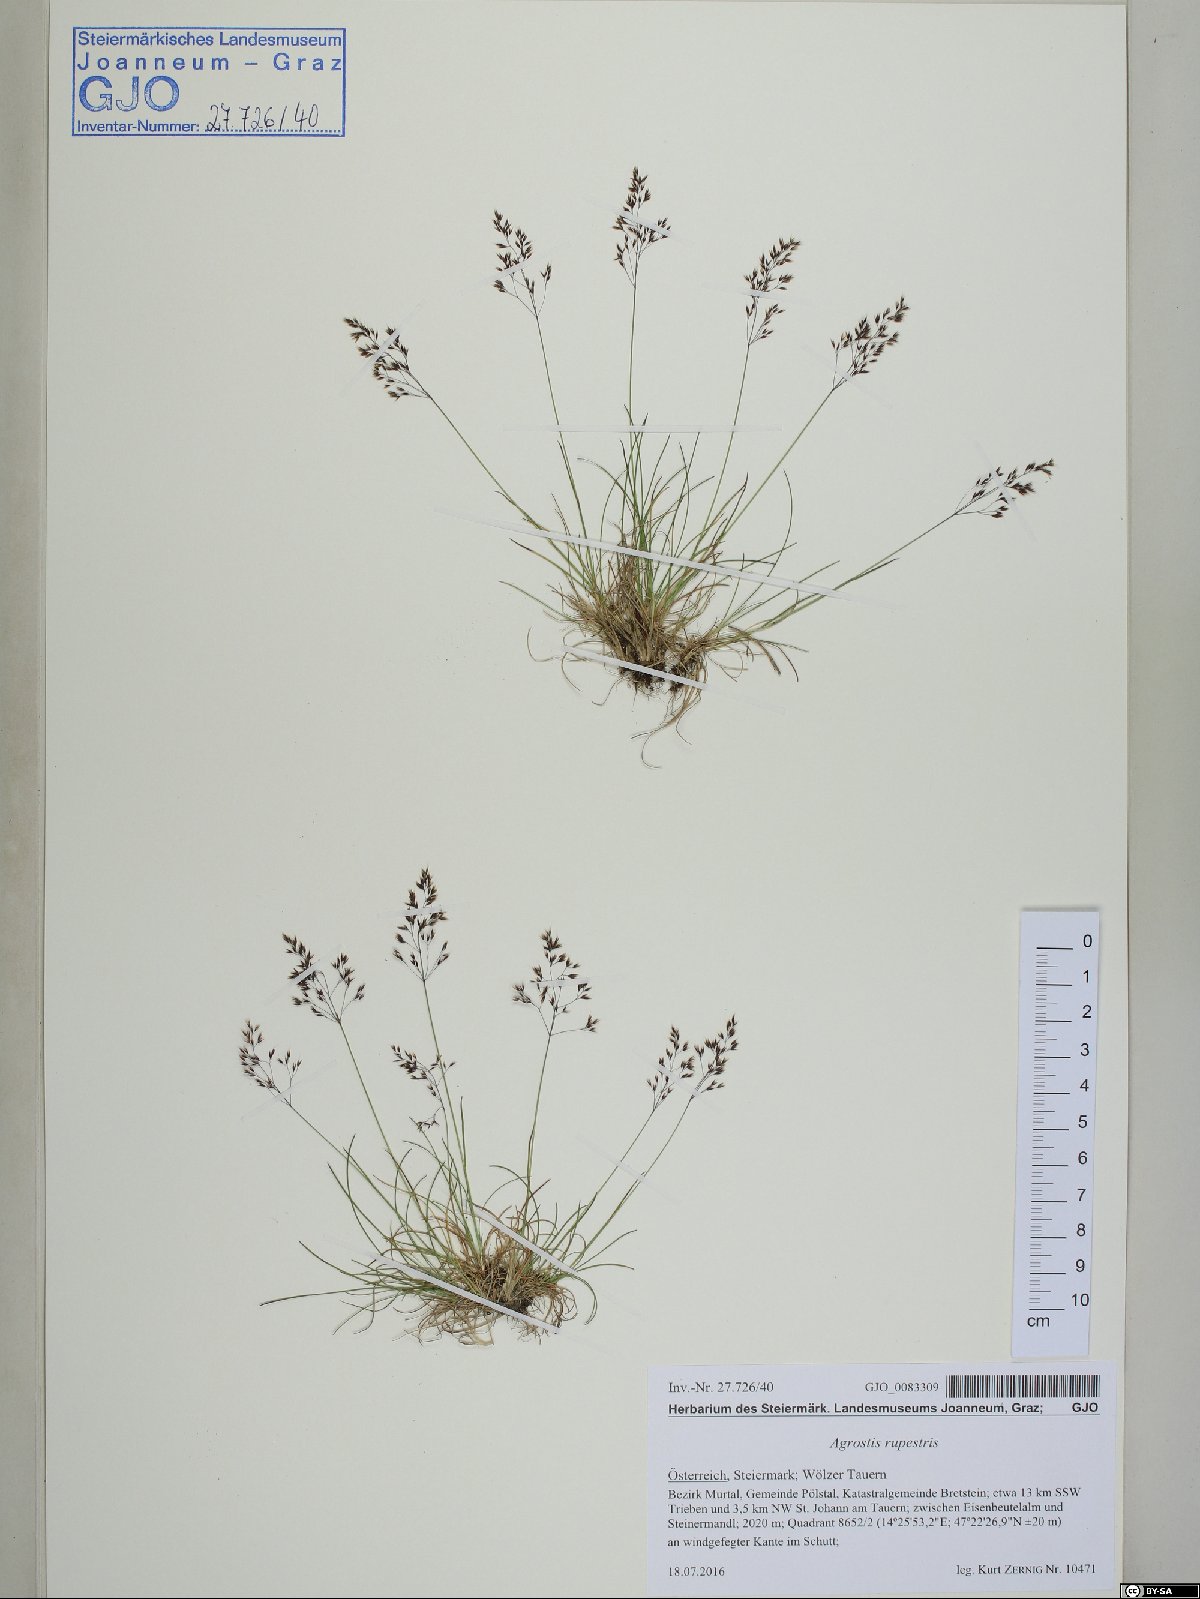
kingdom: Plantae
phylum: Tracheophyta
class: Liliopsida
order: Poales
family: Poaceae
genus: Agrostis
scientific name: Agrostis rupestris
